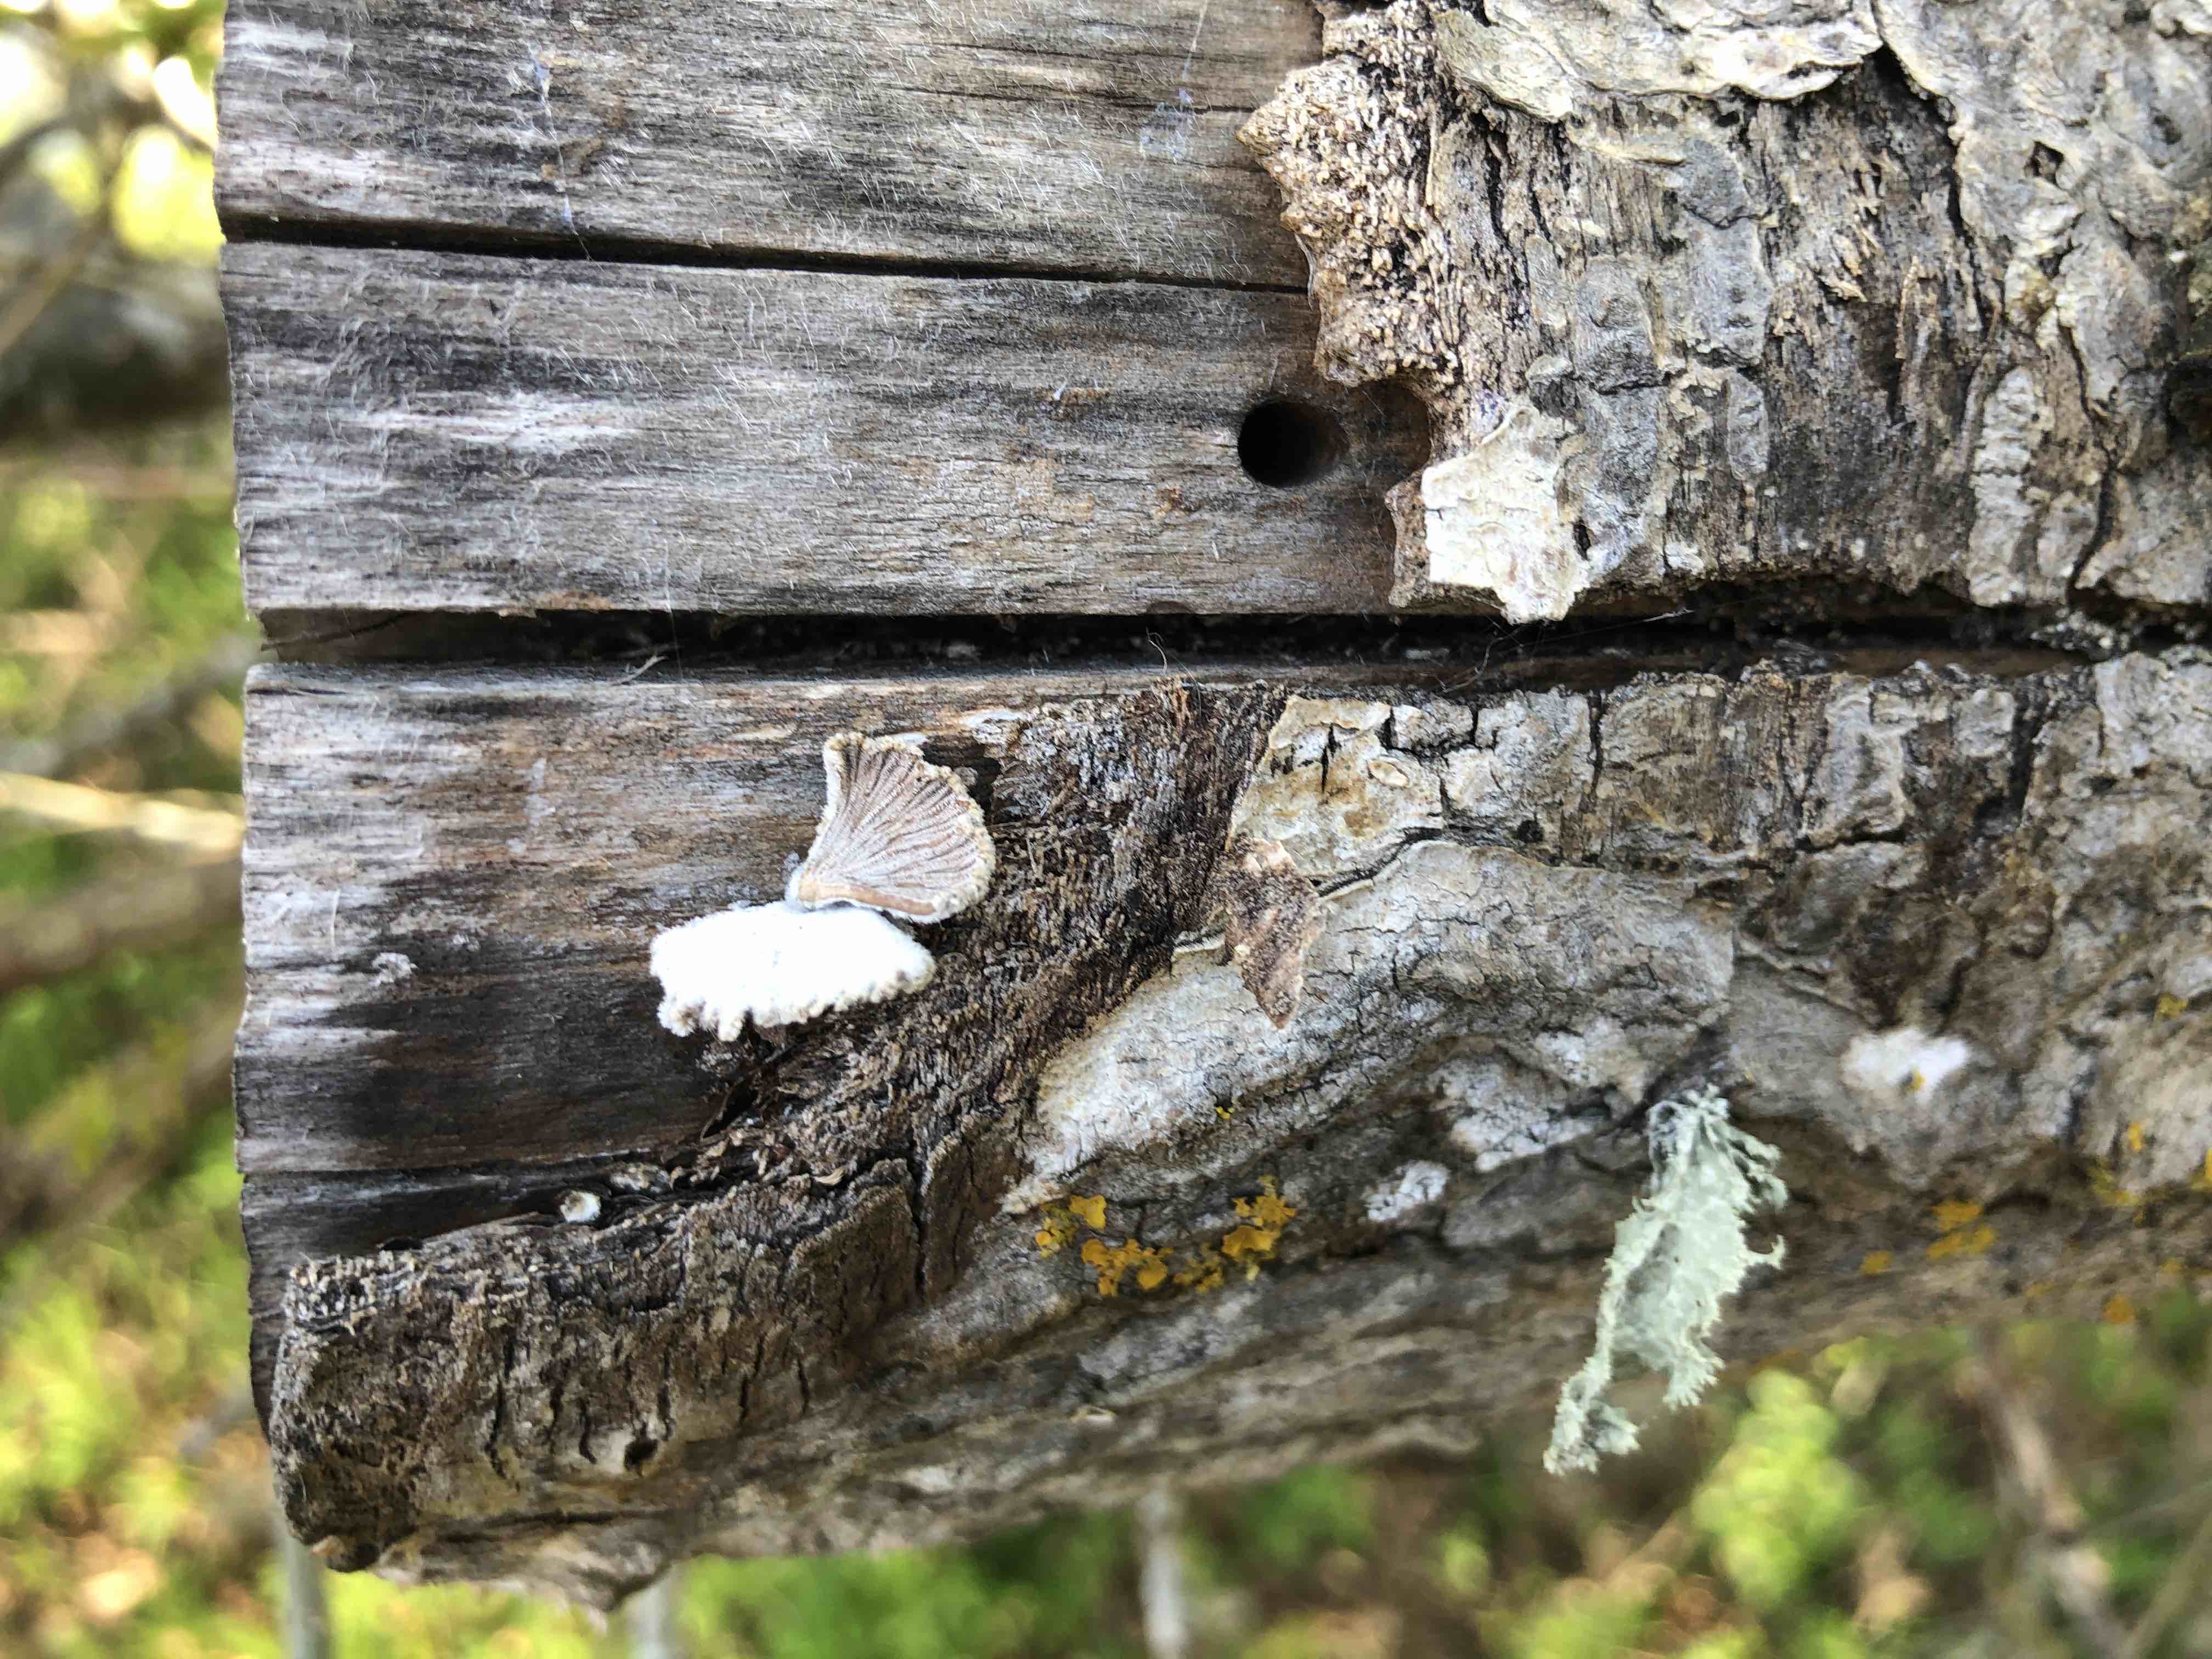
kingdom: Fungi
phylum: Basidiomycota
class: Agaricomycetes
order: Agaricales
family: Schizophyllaceae
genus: Schizophyllum
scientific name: Schizophyllum commune
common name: kløvblad
